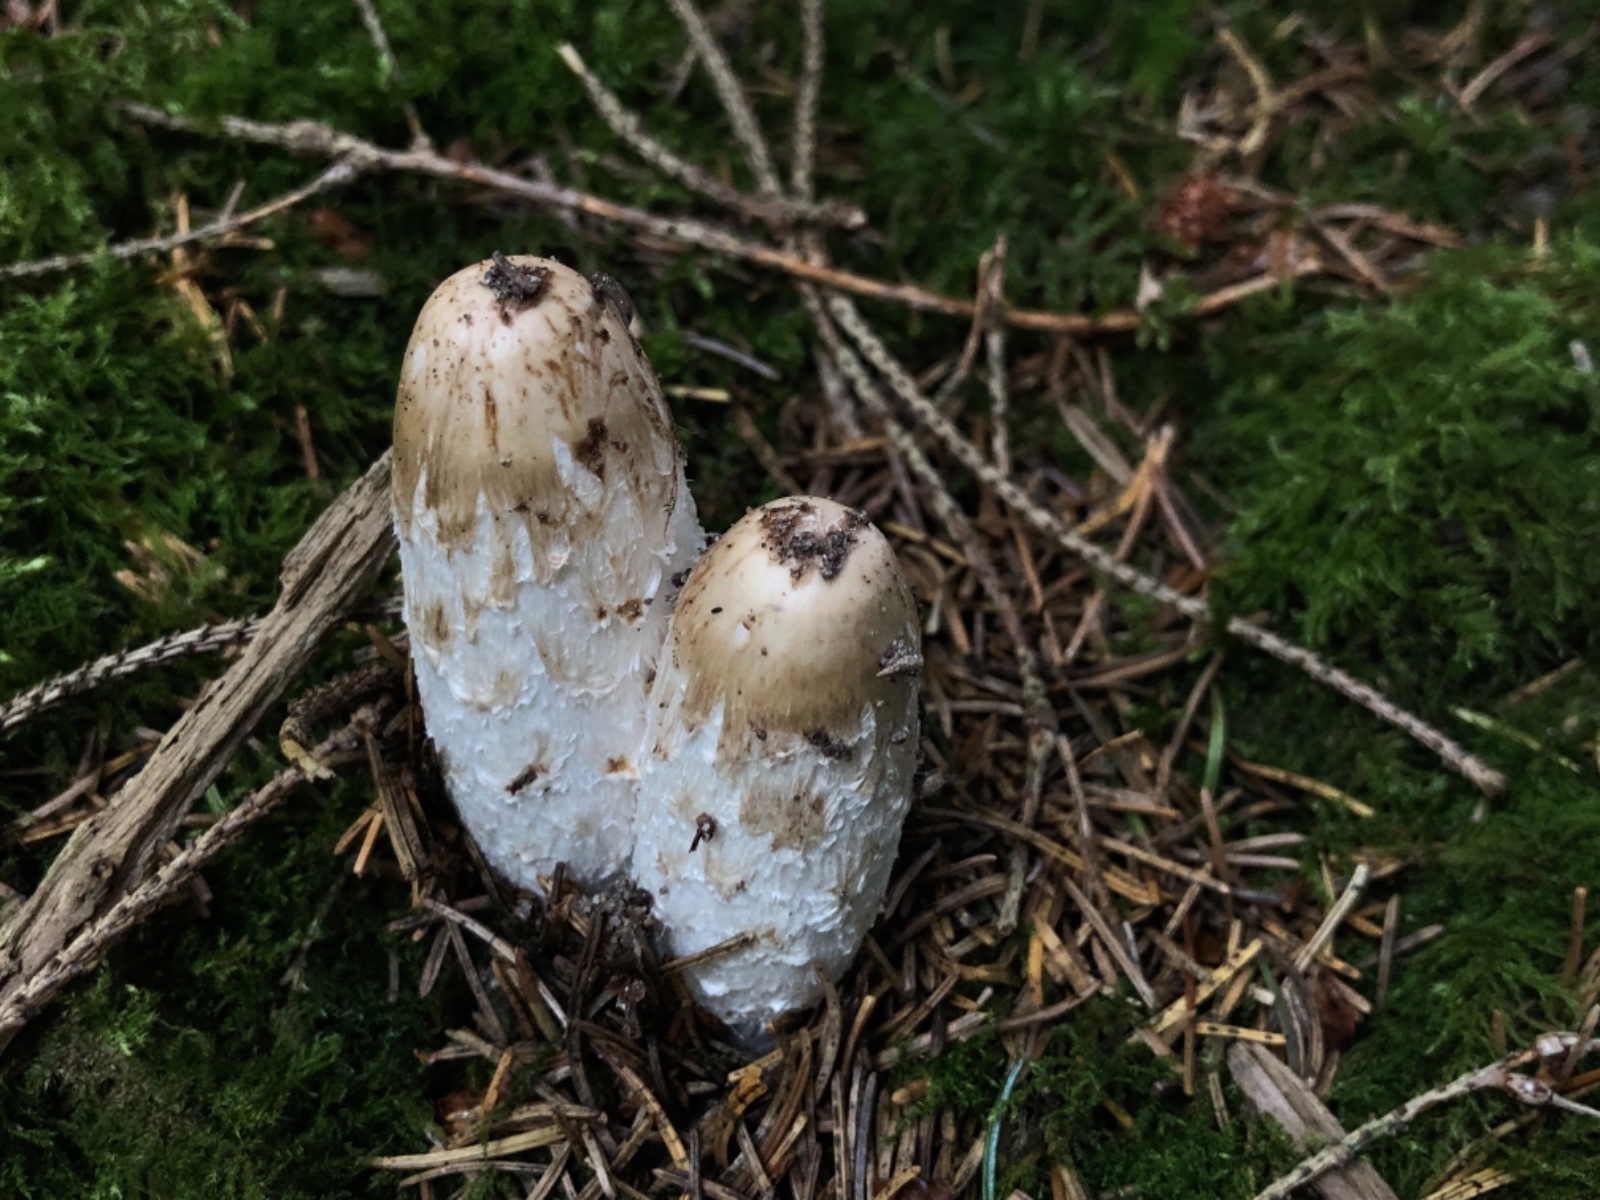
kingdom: Fungi
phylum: Basidiomycota
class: Agaricomycetes
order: Agaricales
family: Agaricaceae
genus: Coprinus
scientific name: Coprinus comatus
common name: stor parykhat
